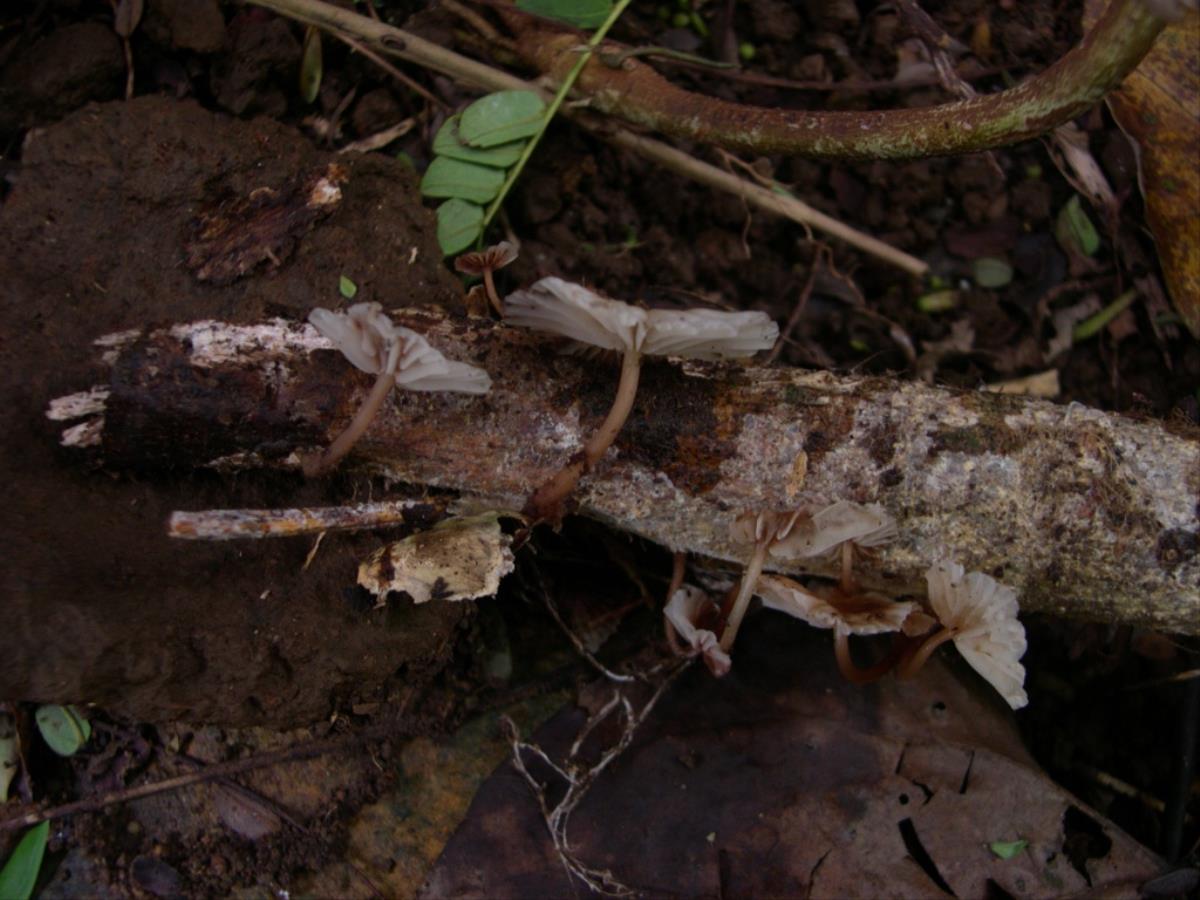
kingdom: Fungi
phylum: Basidiomycota
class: Agaricomycetes
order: Agaricales
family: Omphalotaceae
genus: Marasmiellus
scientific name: Marasmiellus
